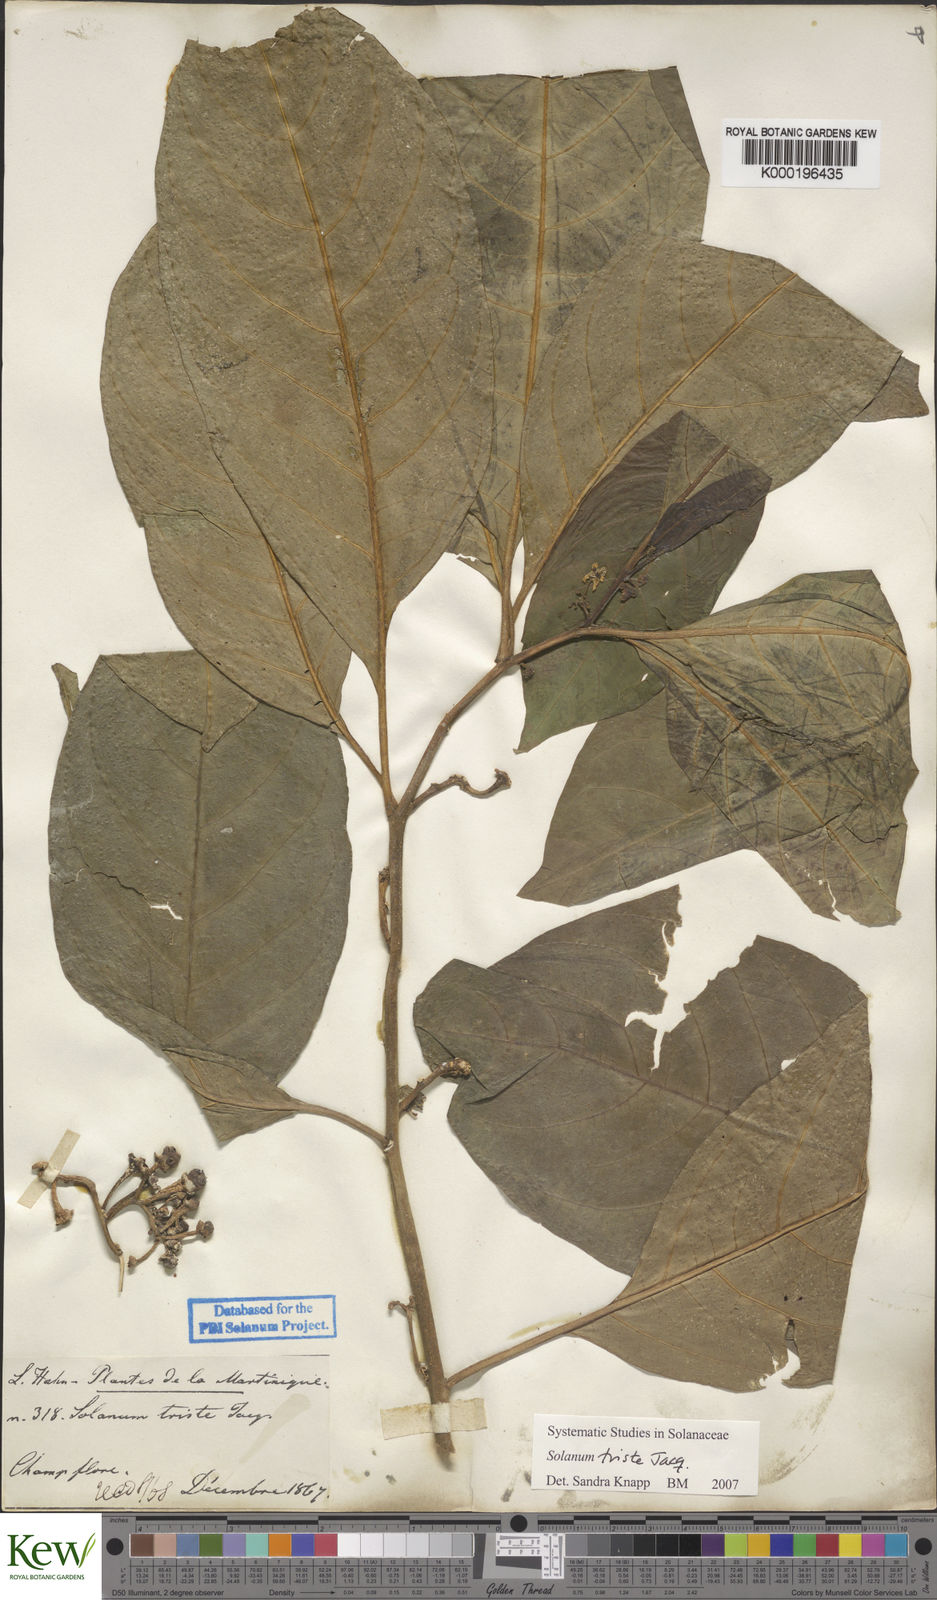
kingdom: Plantae
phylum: Tracheophyta
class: Magnoliopsida
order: Solanales
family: Solanaceae
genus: Solanum
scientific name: Solanum triste
